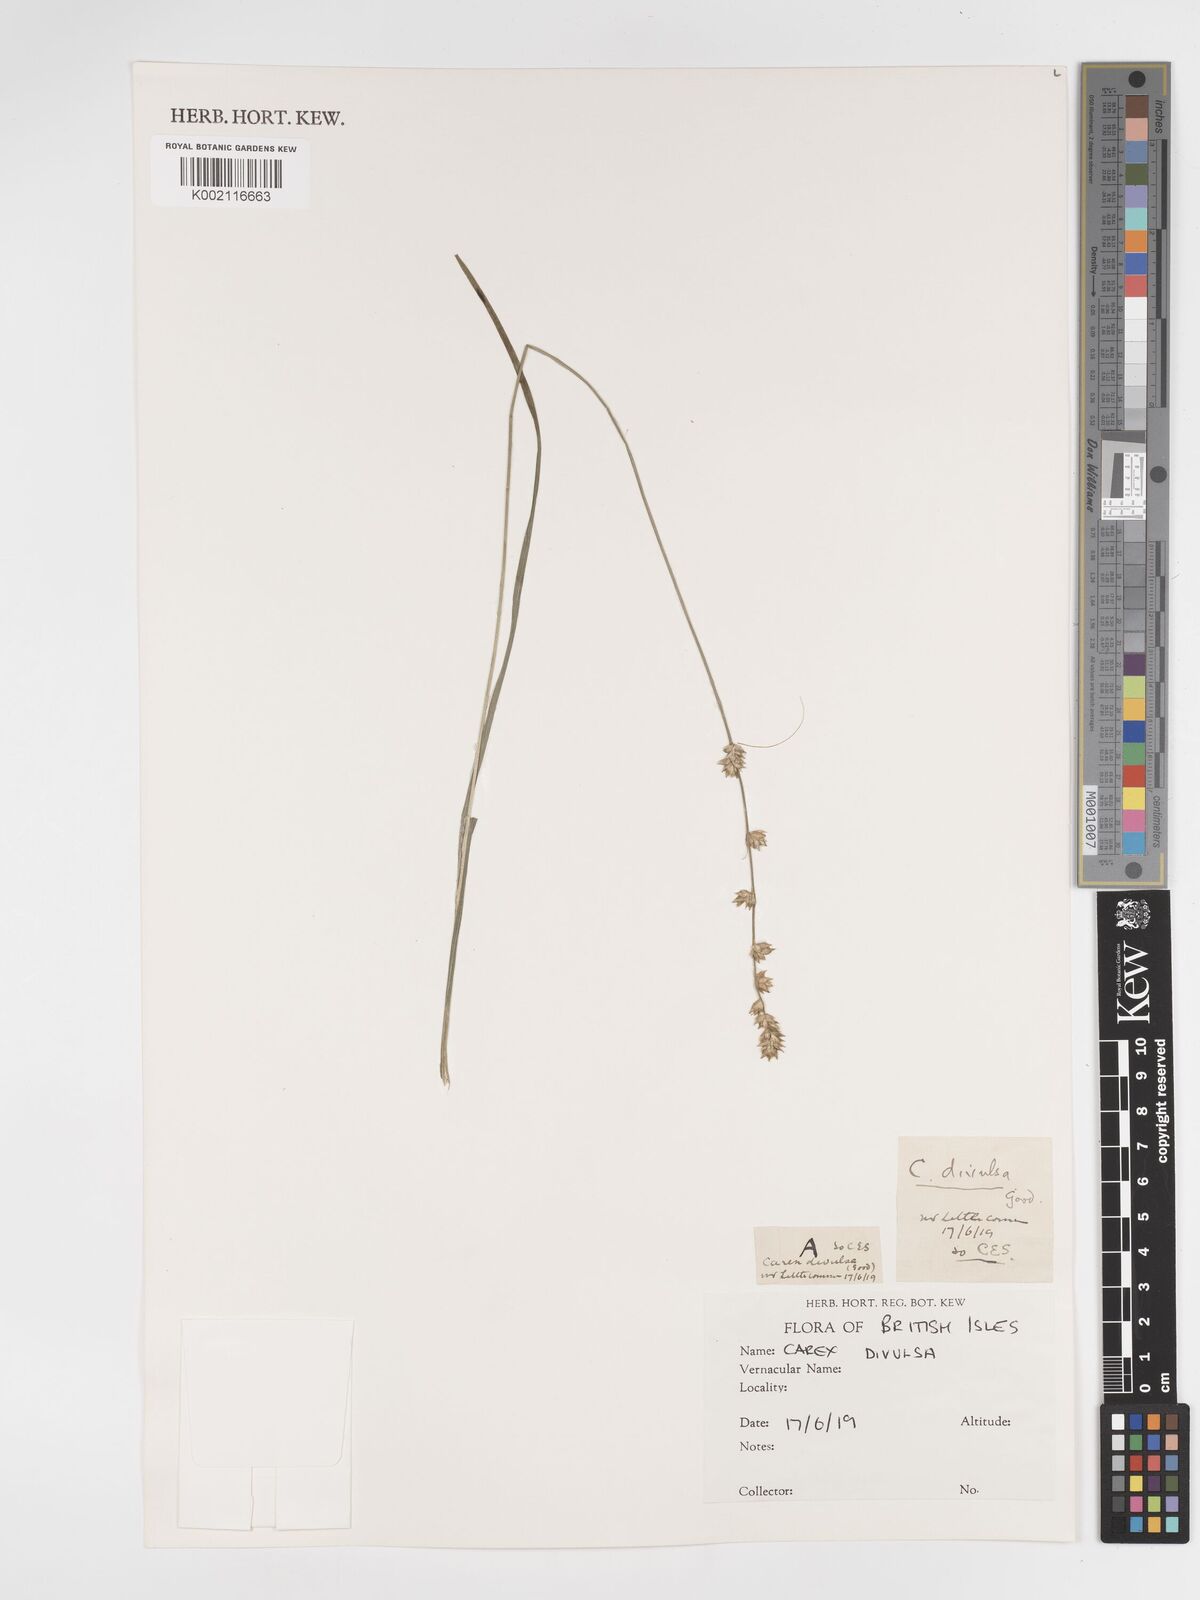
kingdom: Plantae
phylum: Tracheophyta
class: Liliopsida
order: Poales
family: Cyperaceae
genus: Carex
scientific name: Carex divulsa
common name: Grassland sedge
